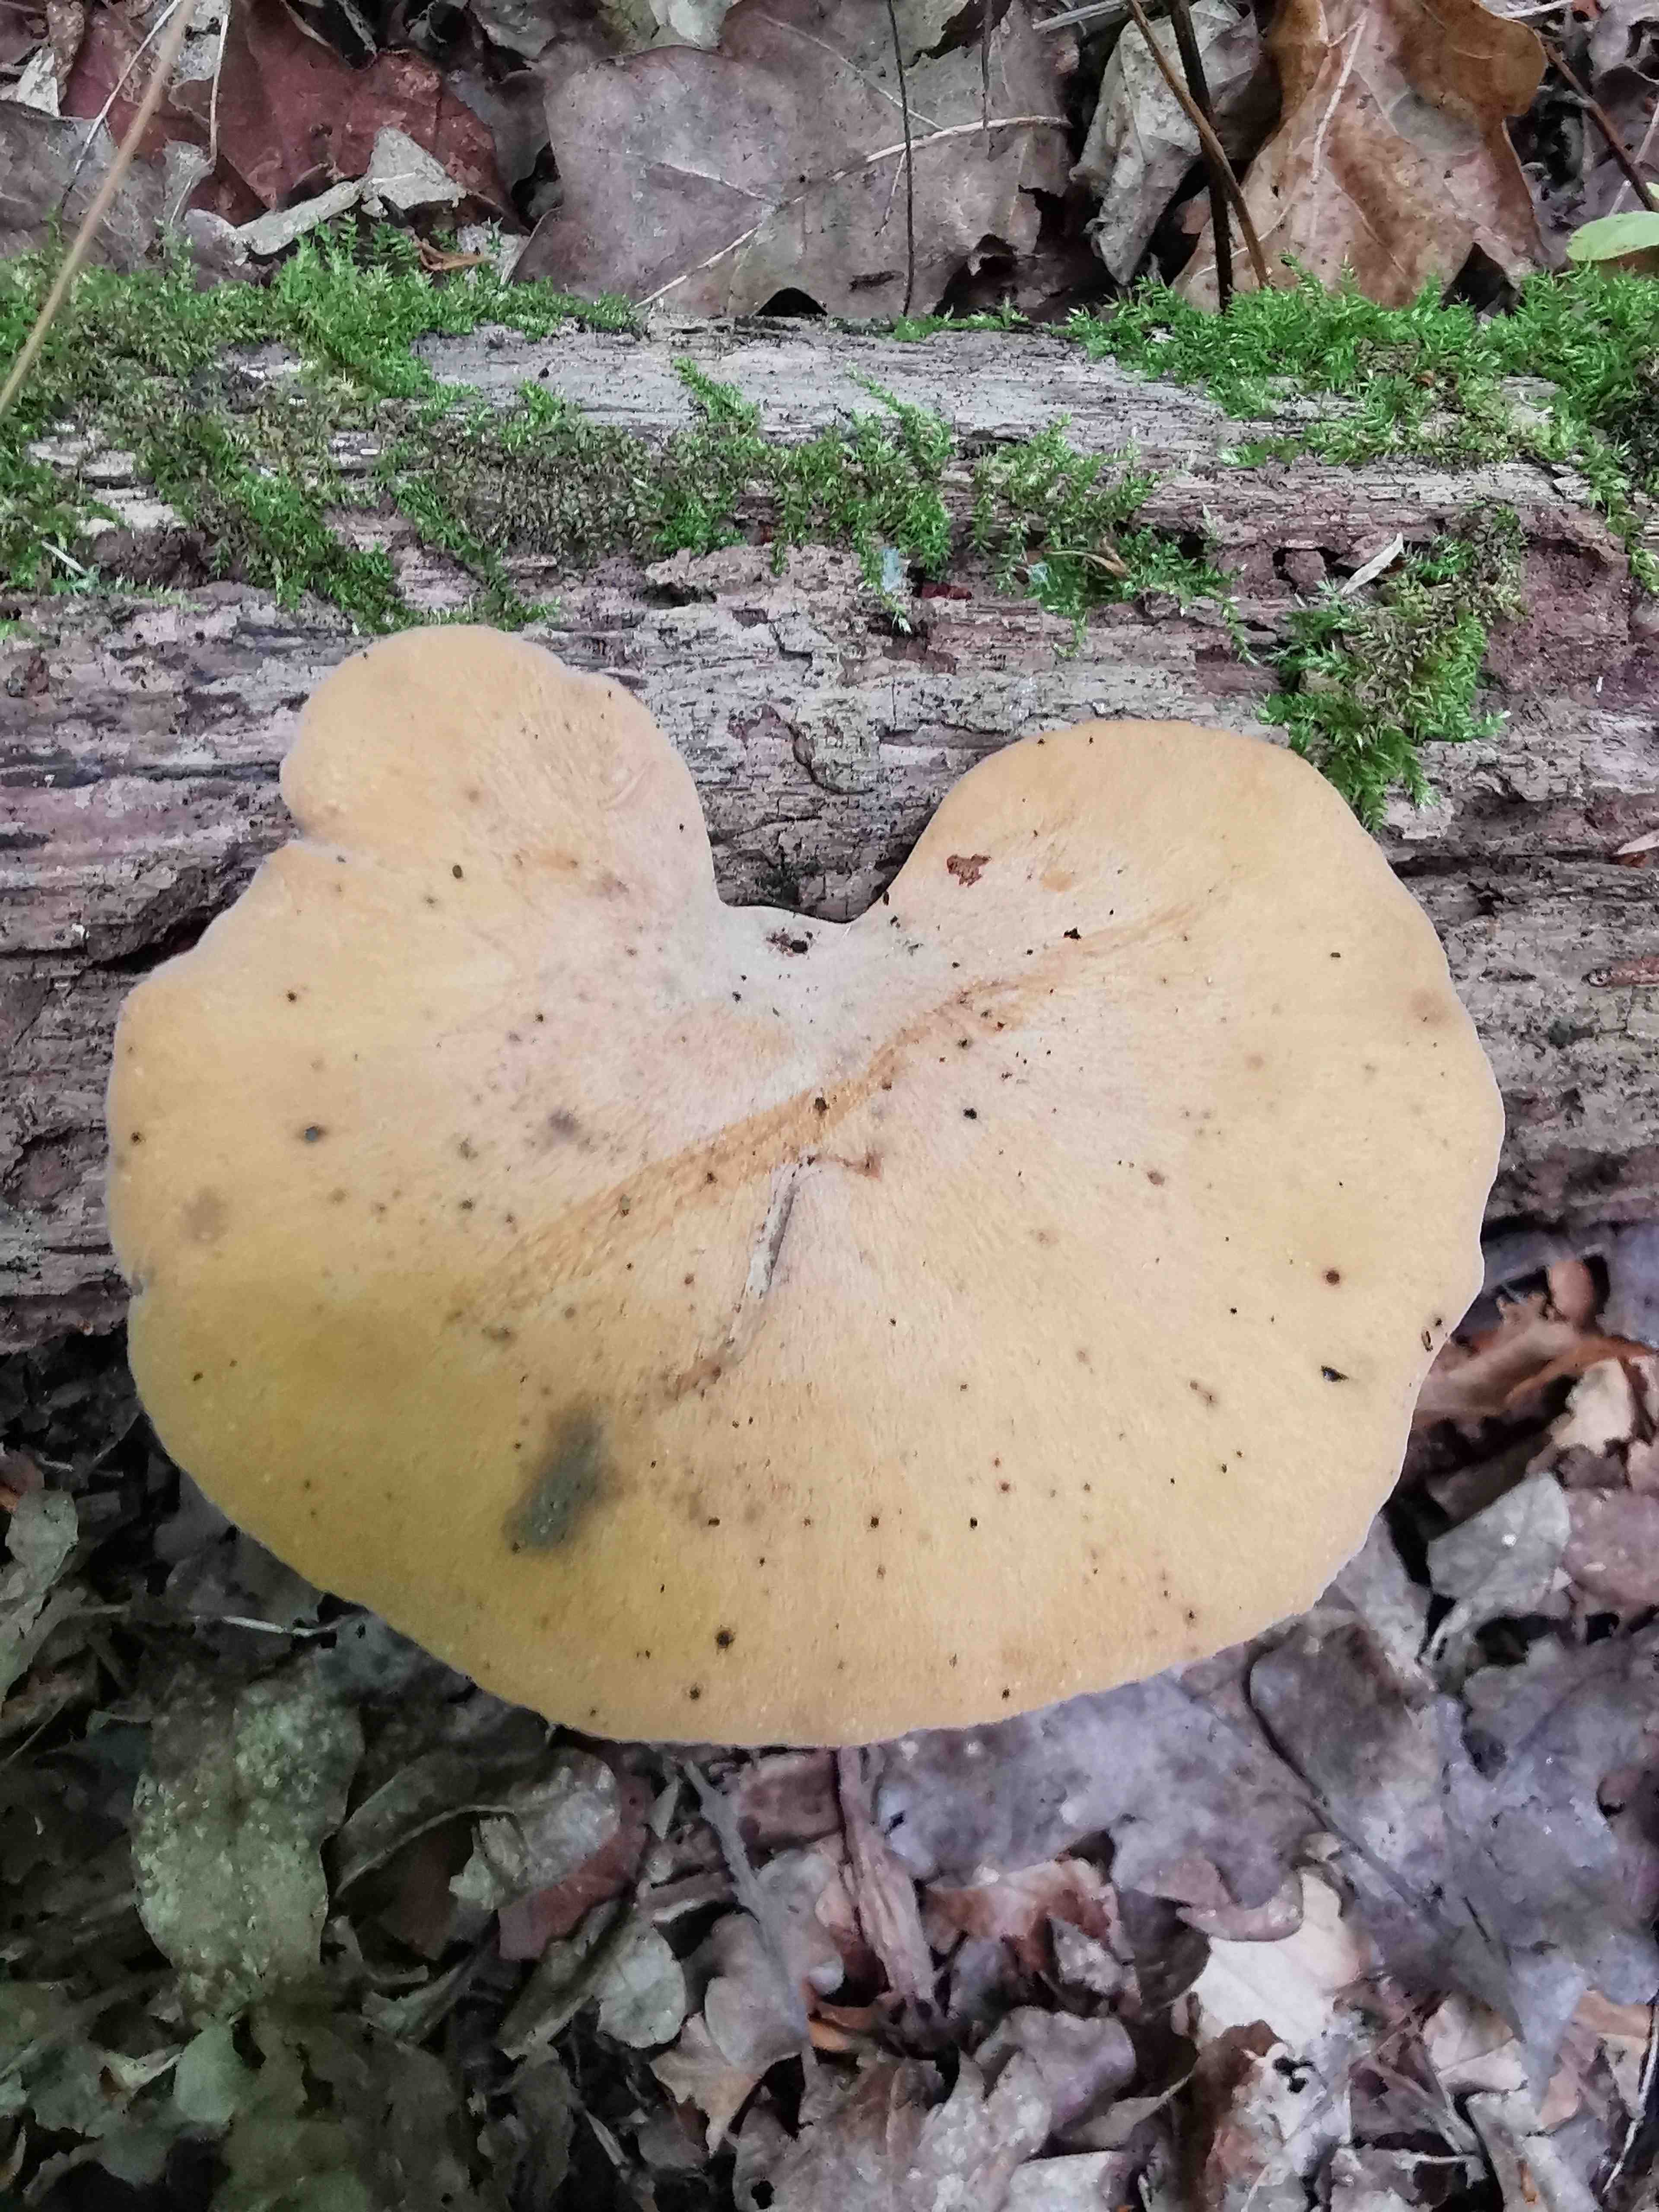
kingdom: Fungi
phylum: Basidiomycota
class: Agaricomycetes
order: Polyporales
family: Polyporaceae
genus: Cerioporus
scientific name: Cerioporus varius
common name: foranderlig stilkporesvamp
